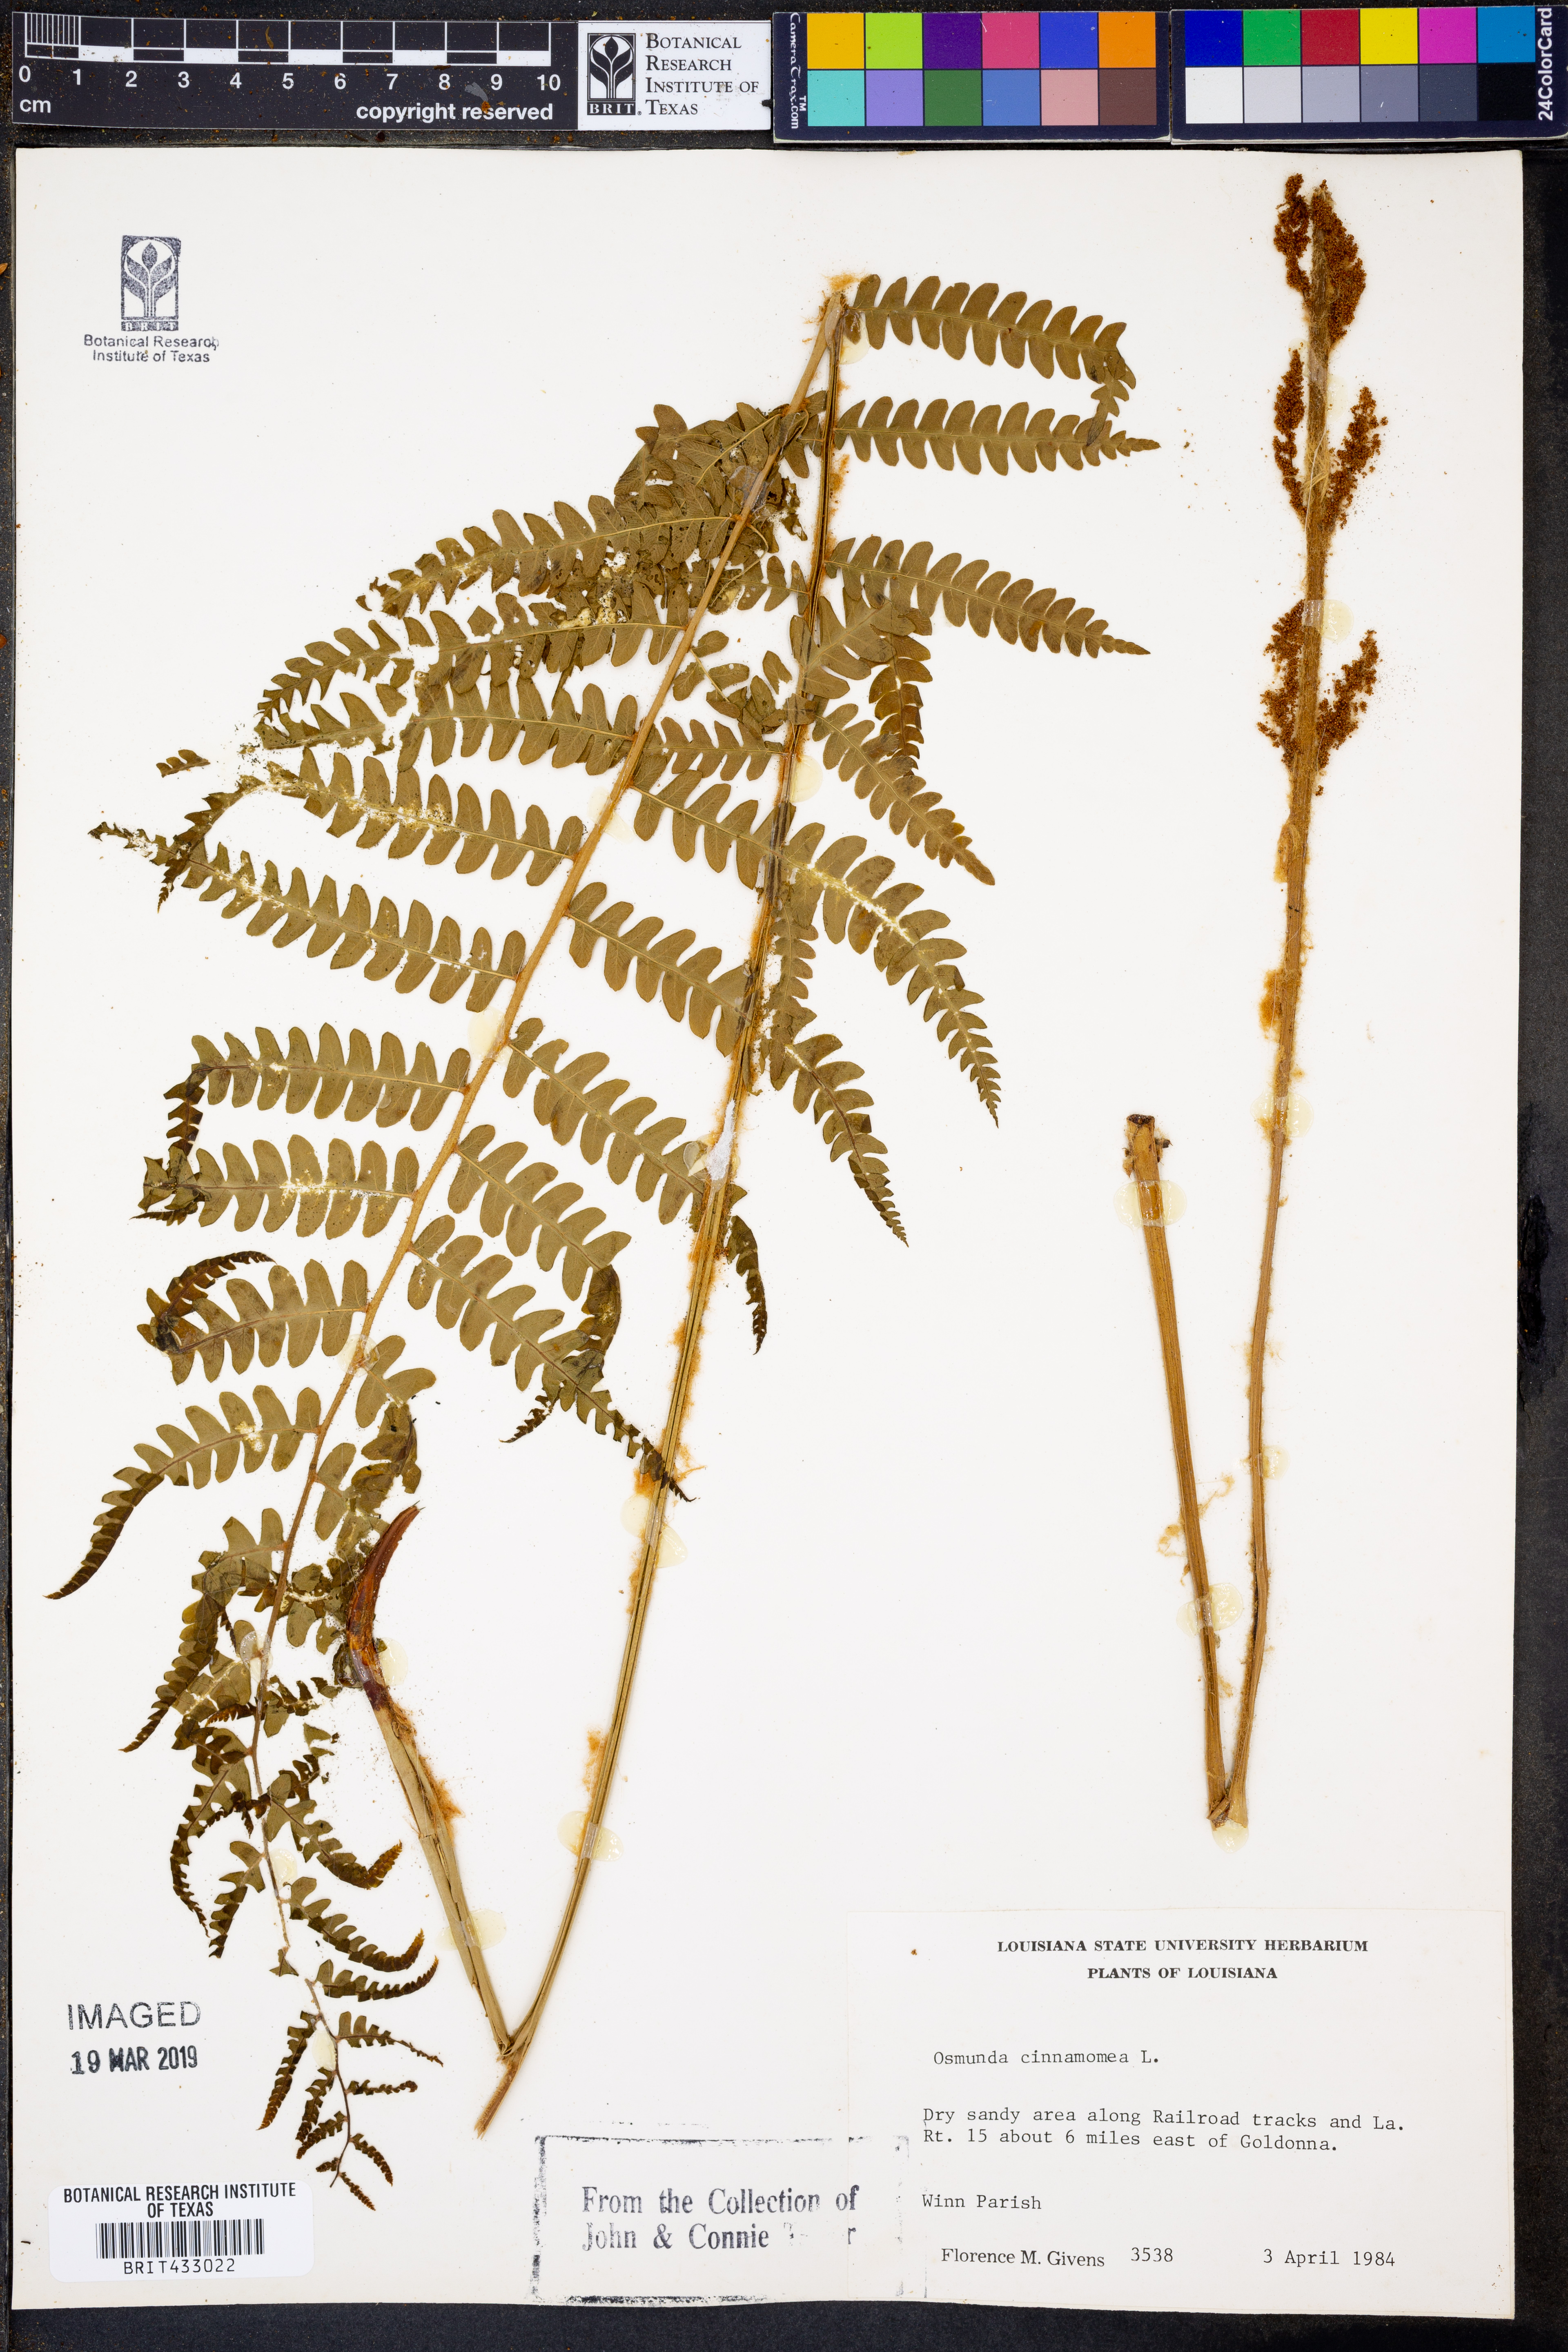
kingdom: Plantae
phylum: Tracheophyta
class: Polypodiopsida
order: Osmundales
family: Osmundaceae
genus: Osmundastrum
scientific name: Osmundastrum cinnamomeum
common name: Cinnamon fern
